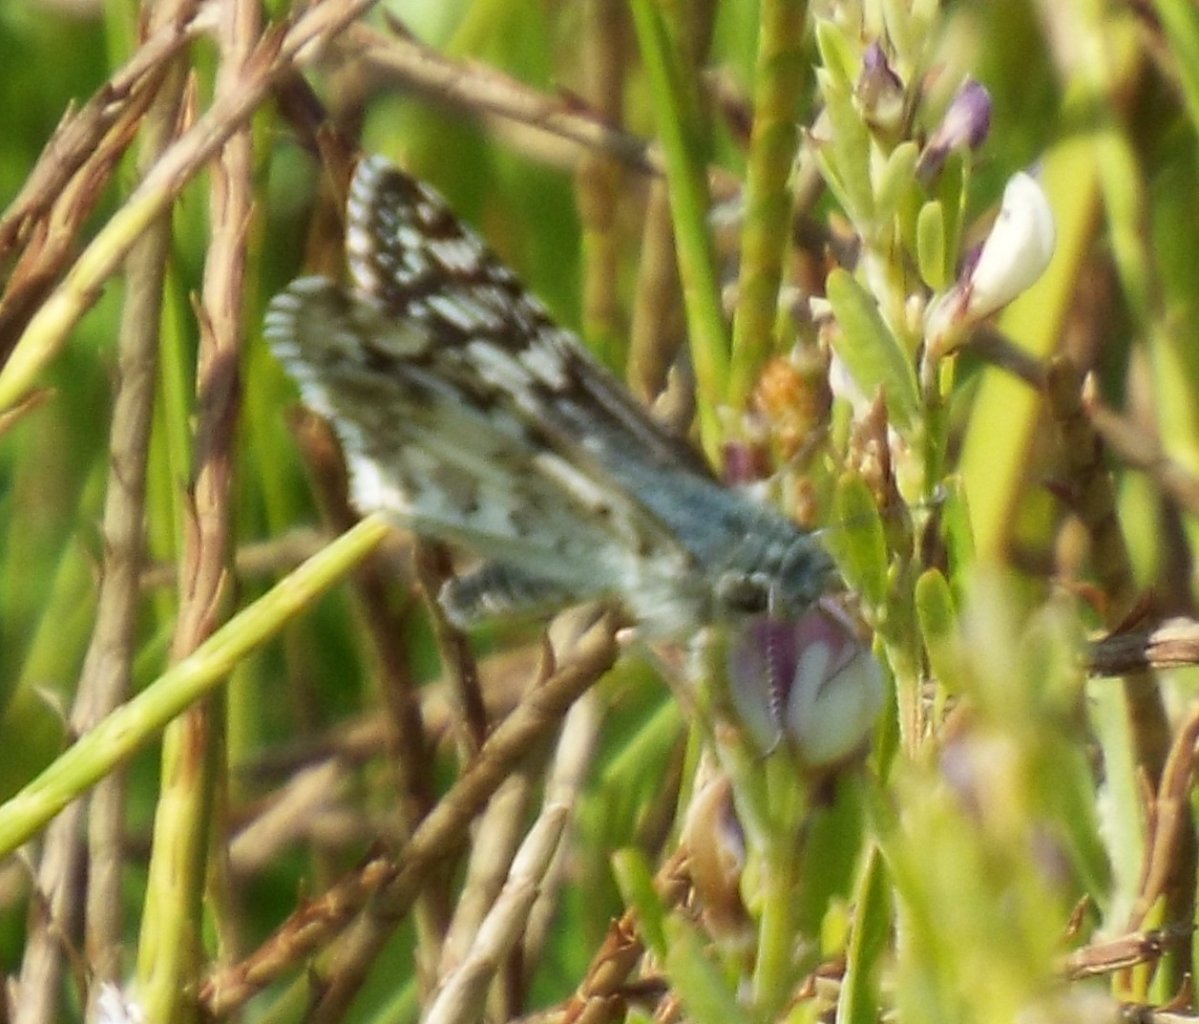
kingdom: Animalia
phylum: Arthropoda
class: Insecta
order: Lepidoptera
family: Hesperiidae
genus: Pyrgus
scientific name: Pyrgus communis
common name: White Checkered-Skipper
